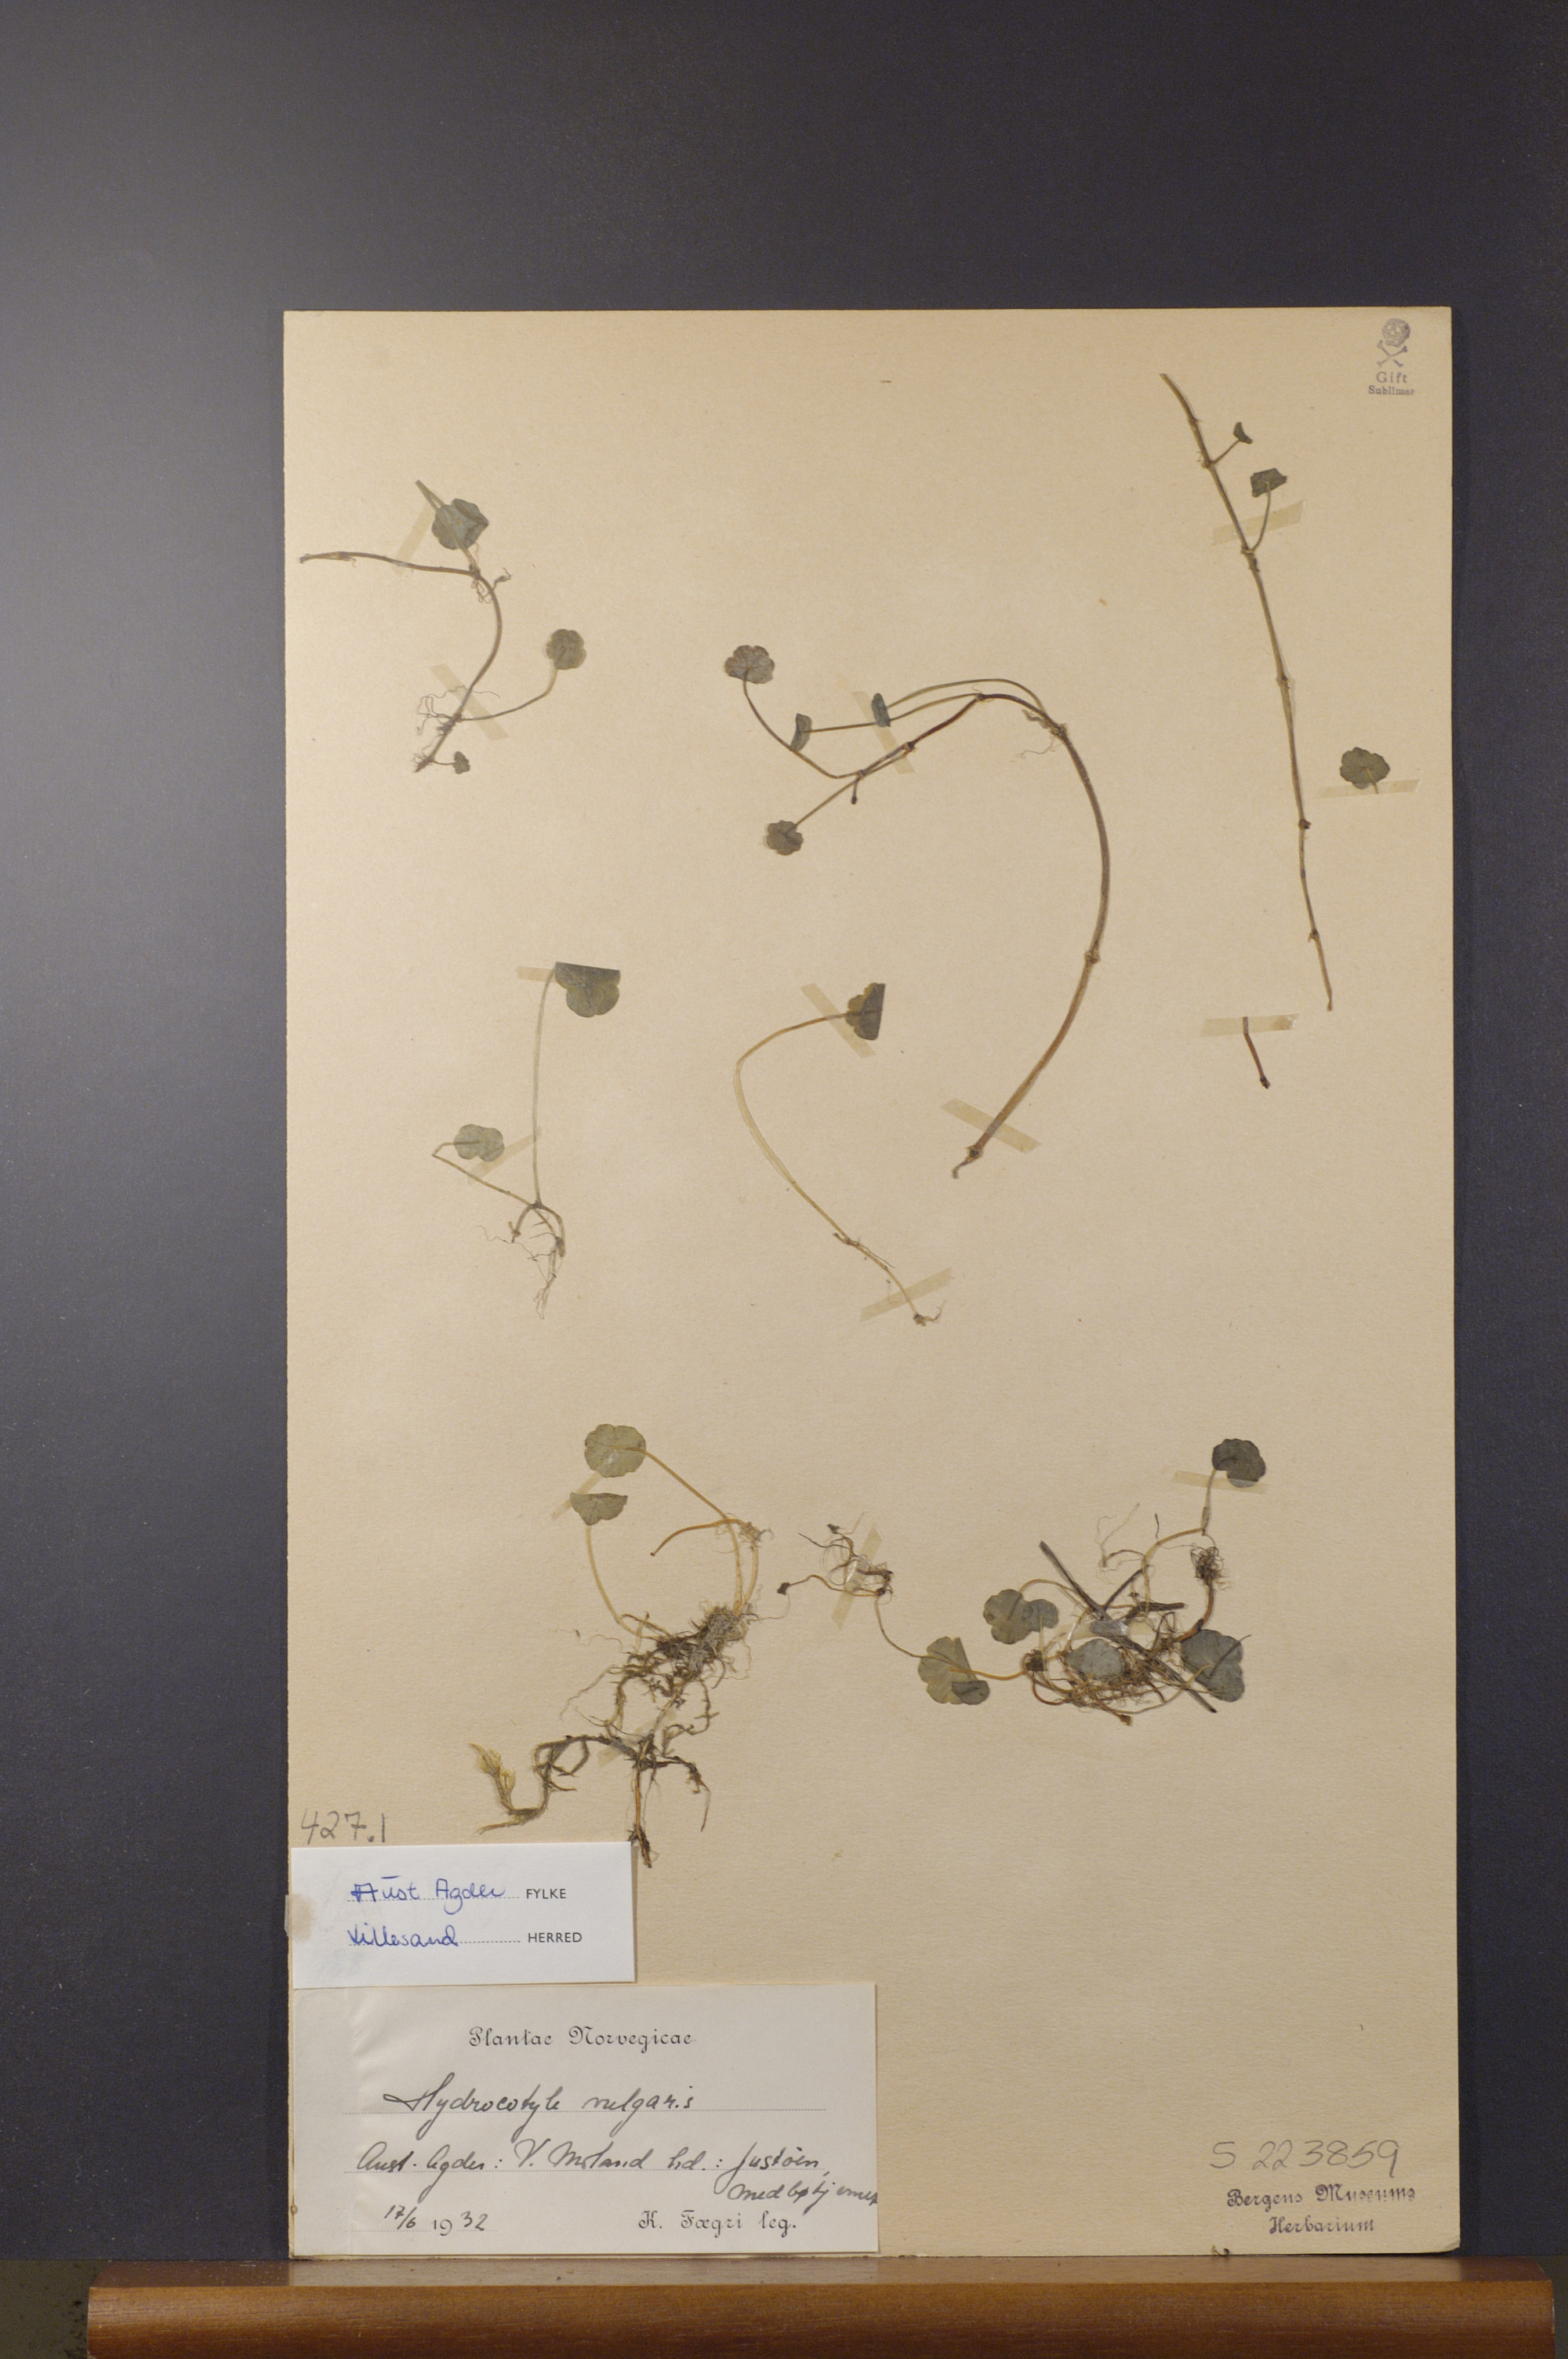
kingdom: Plantae
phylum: Tracheophyta
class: Magnoliopsida
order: Apiales
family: Araliaceae
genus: Hydrocotyle
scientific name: Hydrocotyle vulgaris
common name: Marsh pennywort
